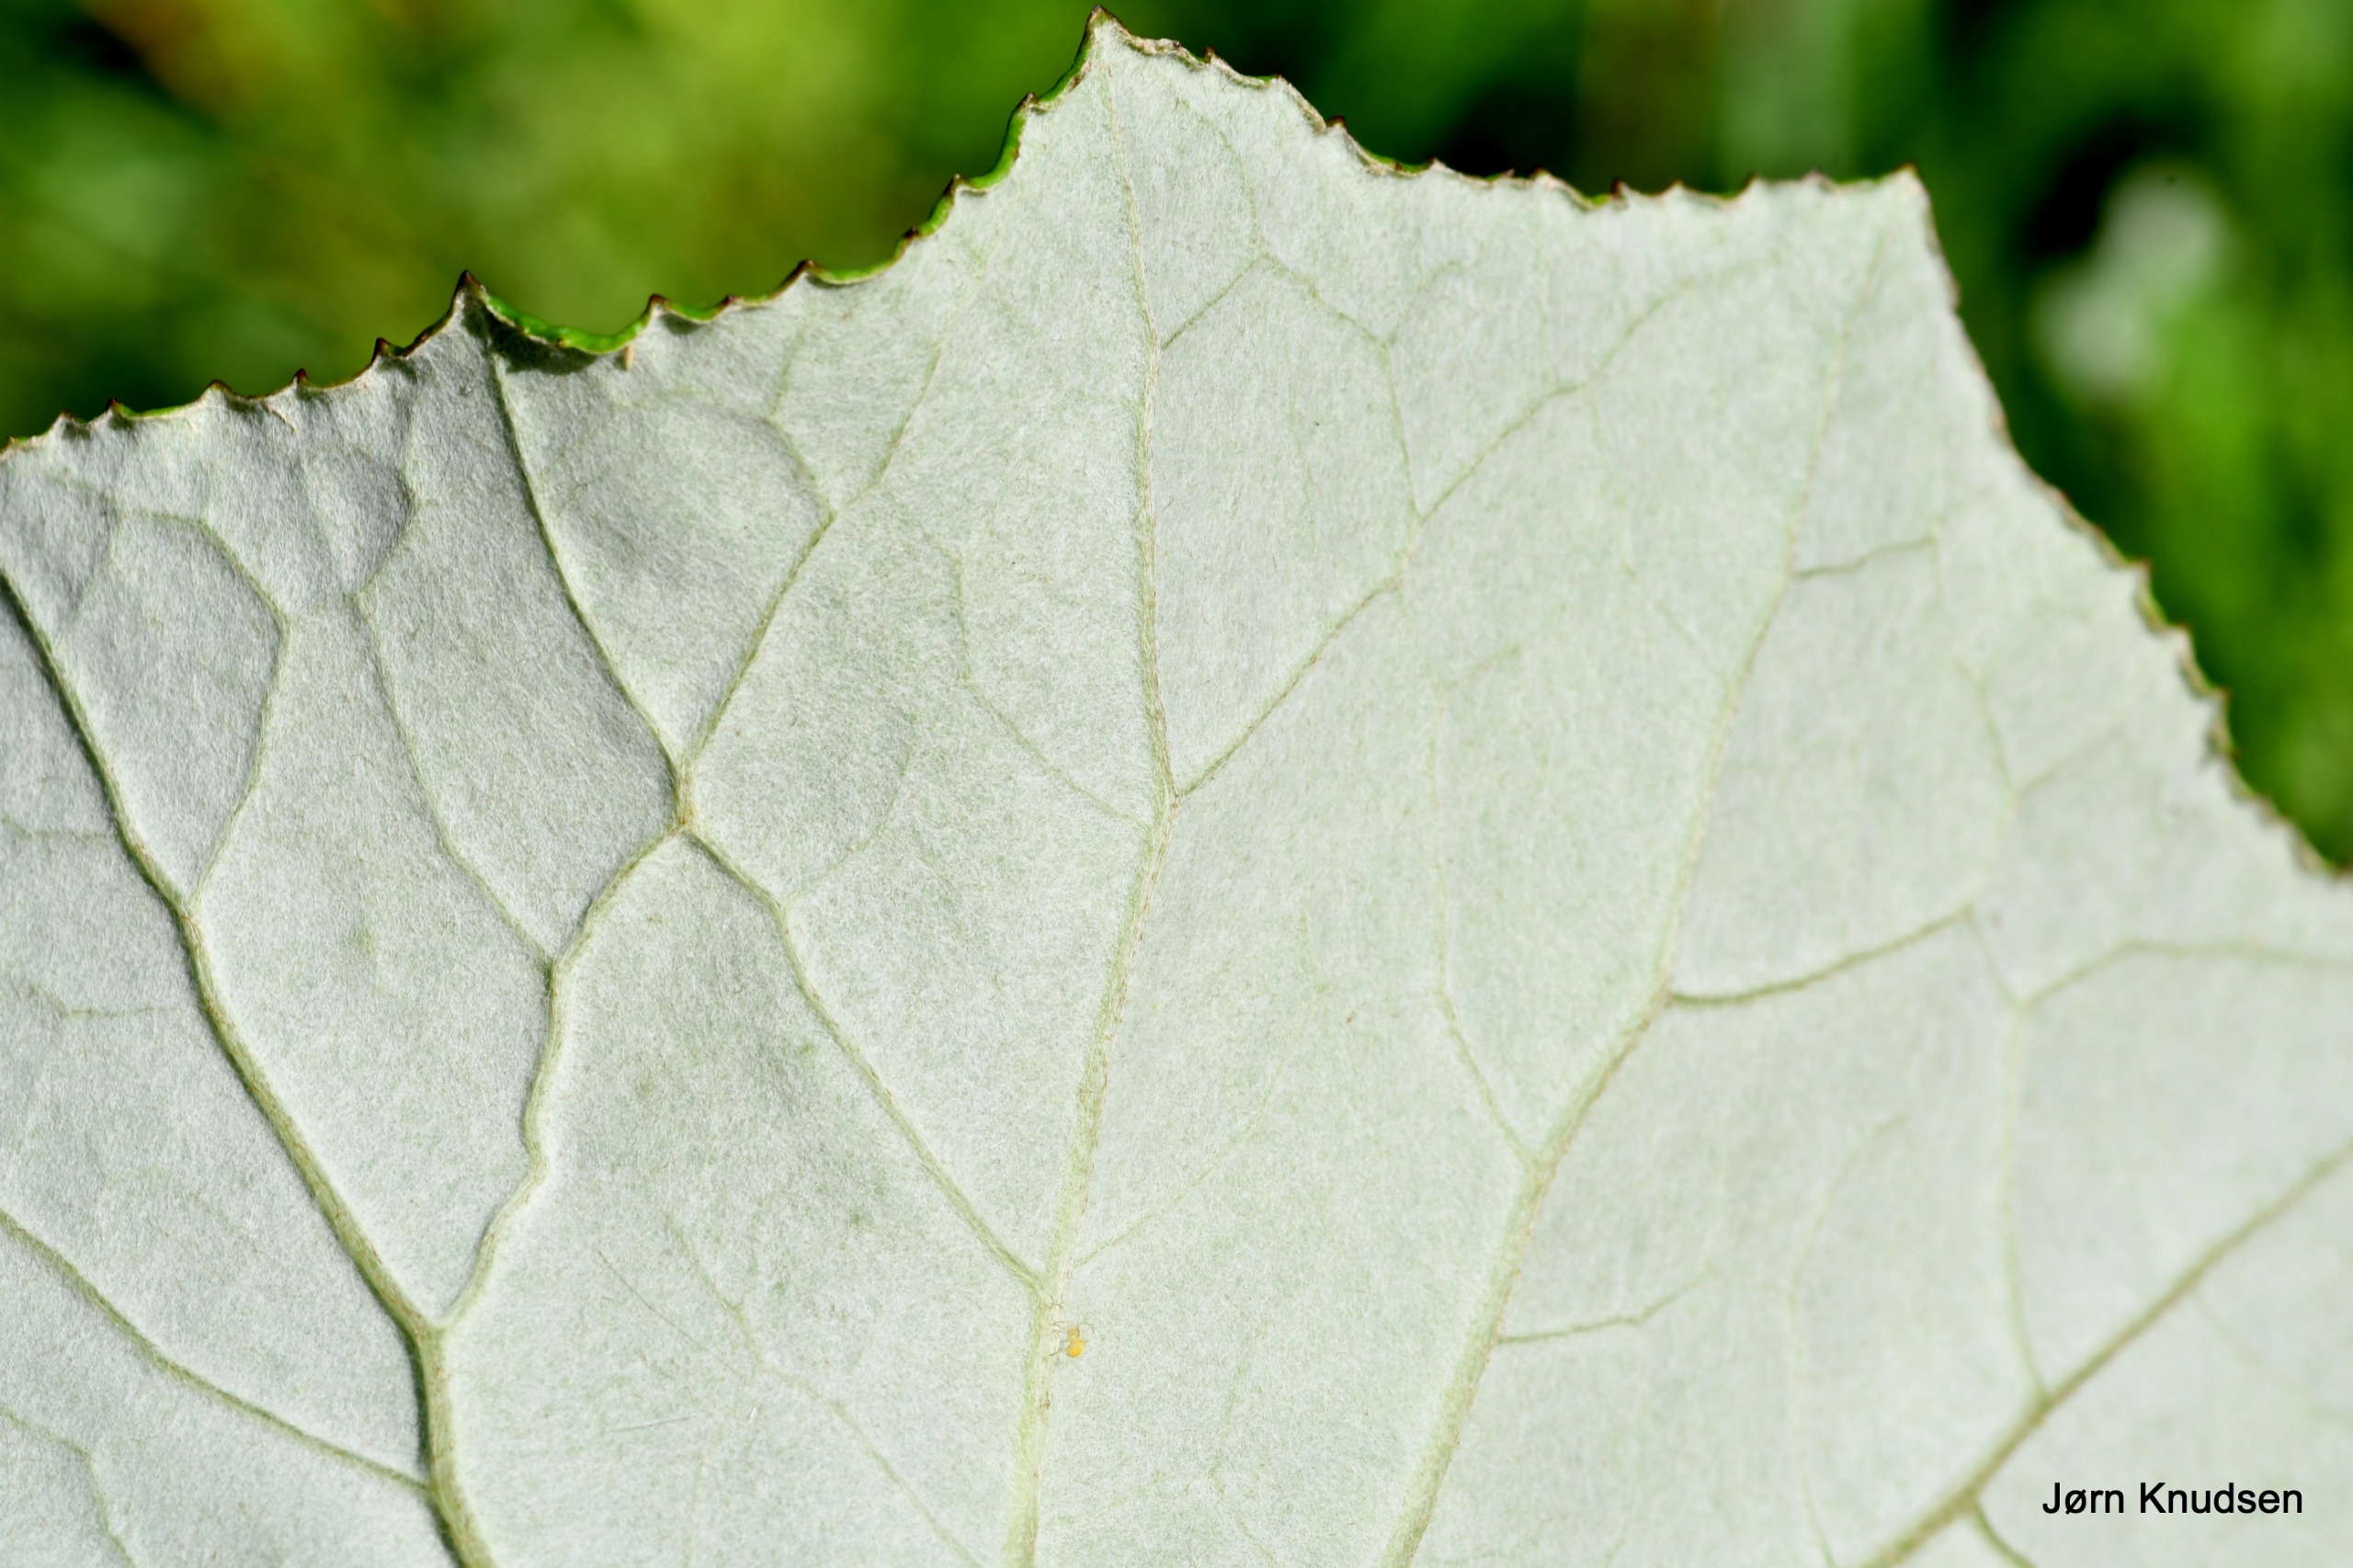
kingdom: Plantae
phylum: Tracheophyta
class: Magnoliopsida
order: Asterales
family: Asteraceae
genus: Tussilago
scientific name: Tussilago farfara
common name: Følfod
